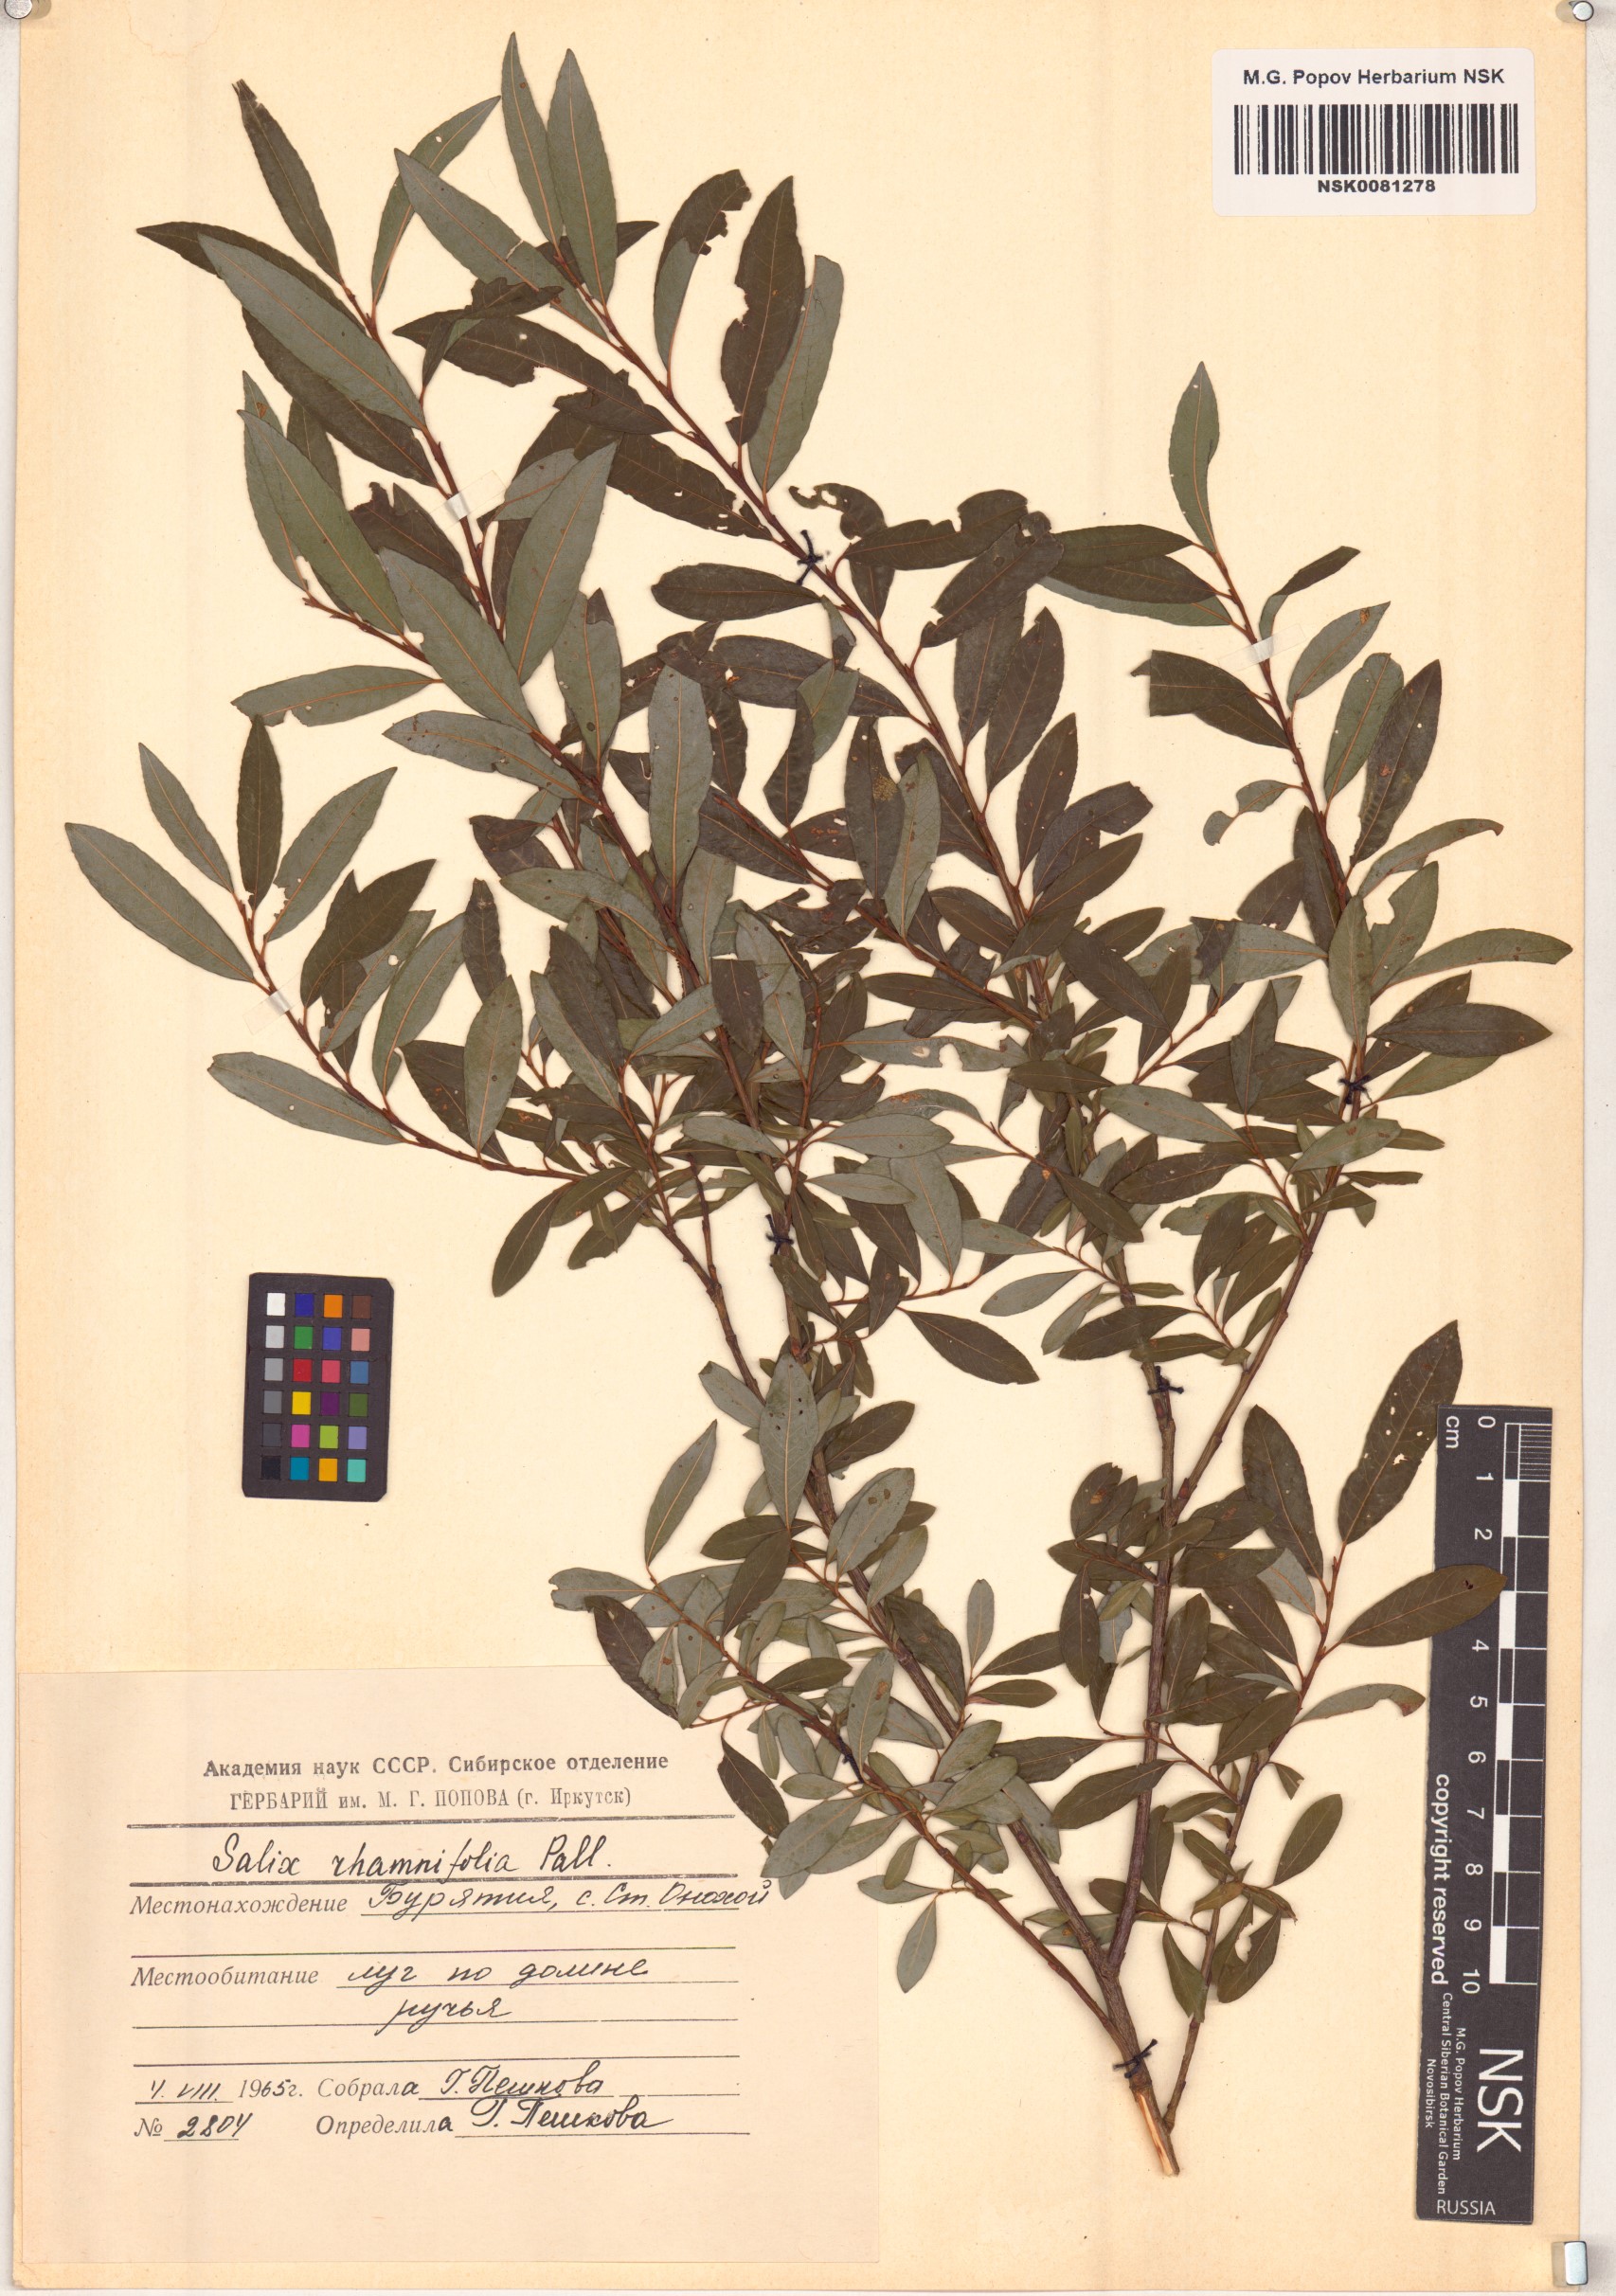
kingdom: Plantae
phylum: Tracheophyta
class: Magnoliopsida
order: Malpighiales
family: Salicaceae
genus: Salix
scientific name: Salix rhamnifolia
